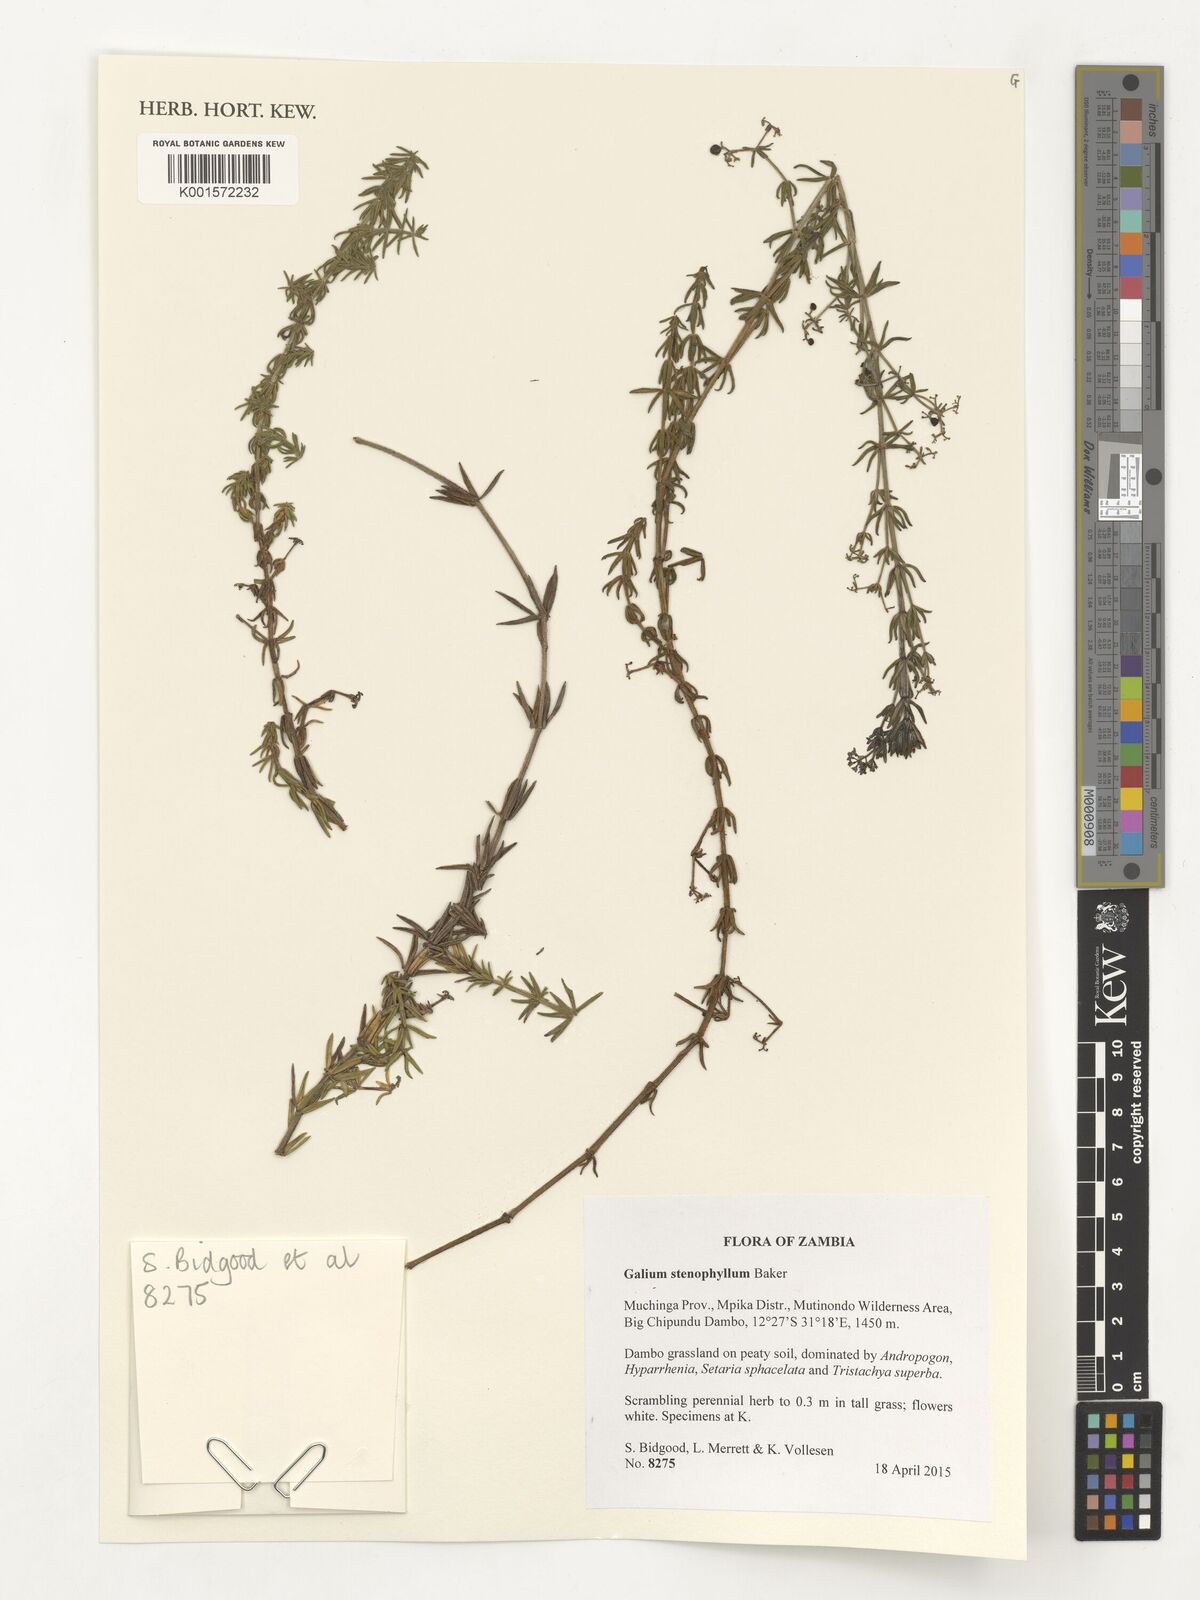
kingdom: Plantae
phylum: Tracheophyta
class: Magnoliopsida
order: Gentianales
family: Rubiaceae
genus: Galium
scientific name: Galium stenophyllum
